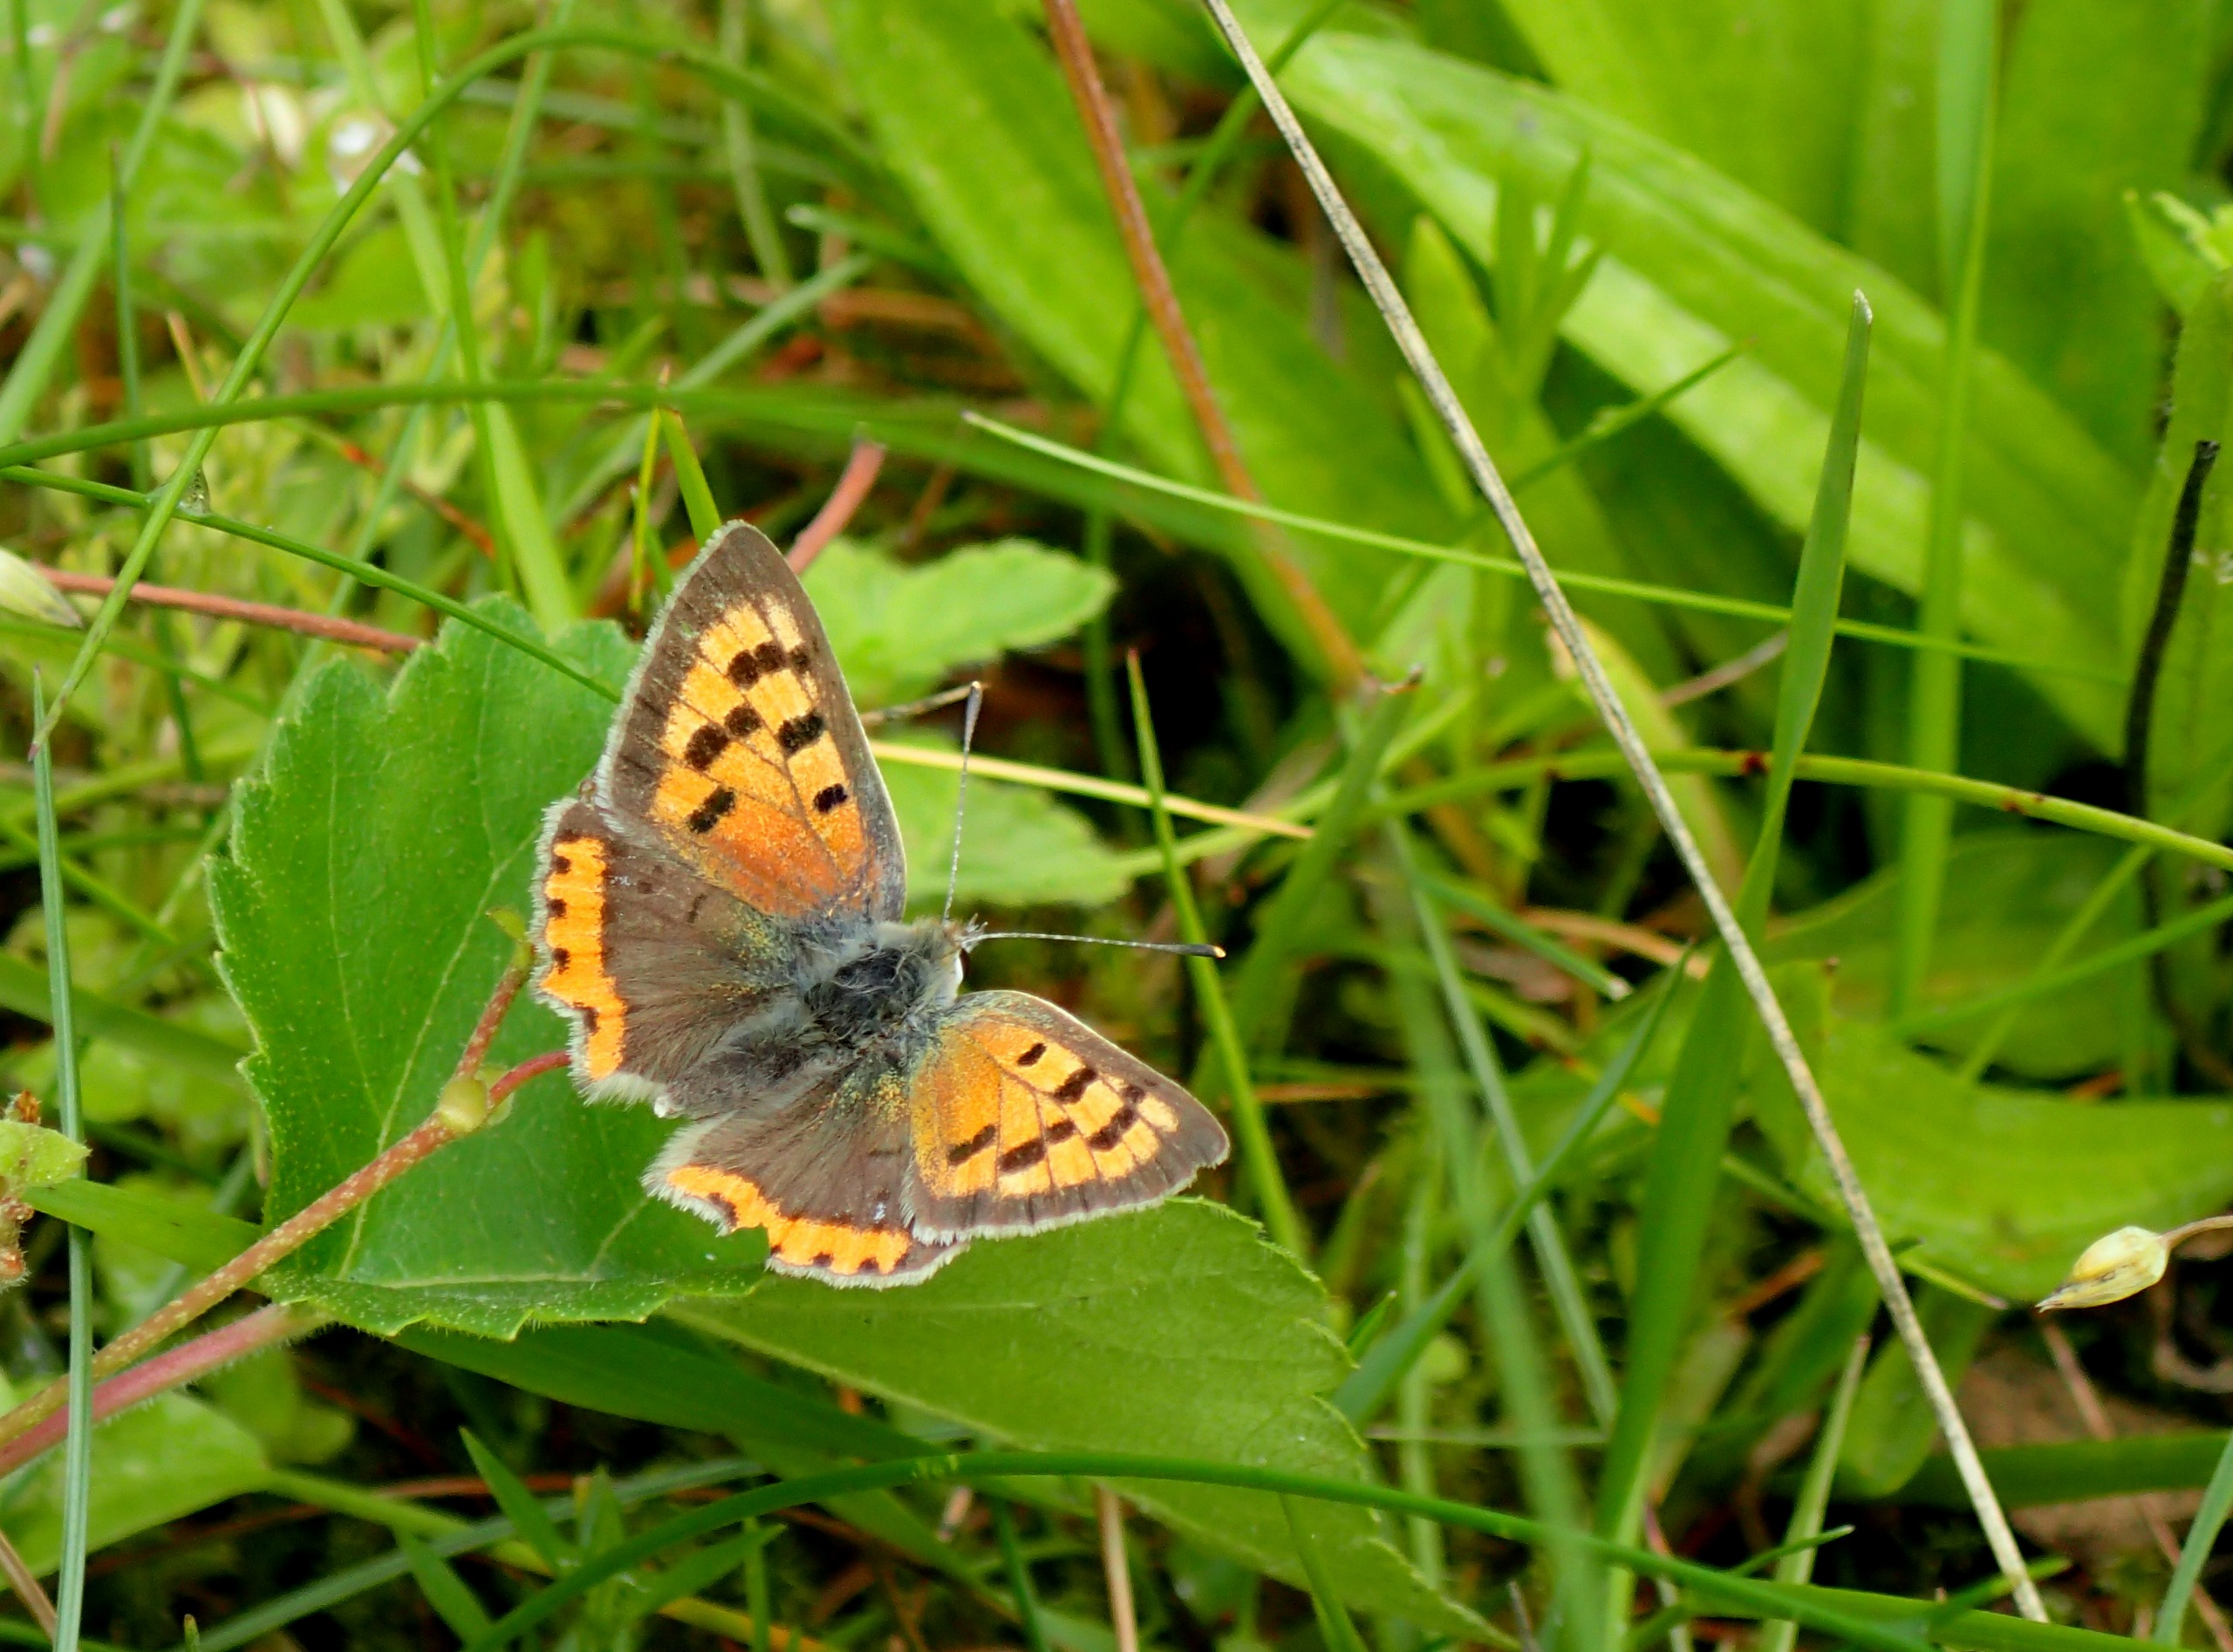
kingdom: Animalia
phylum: Arthropoda
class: Insecta
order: Lepidoptera
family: Lycaenidae
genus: Lycaena
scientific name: Lycaena phlaeas
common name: Lille ildfugl
